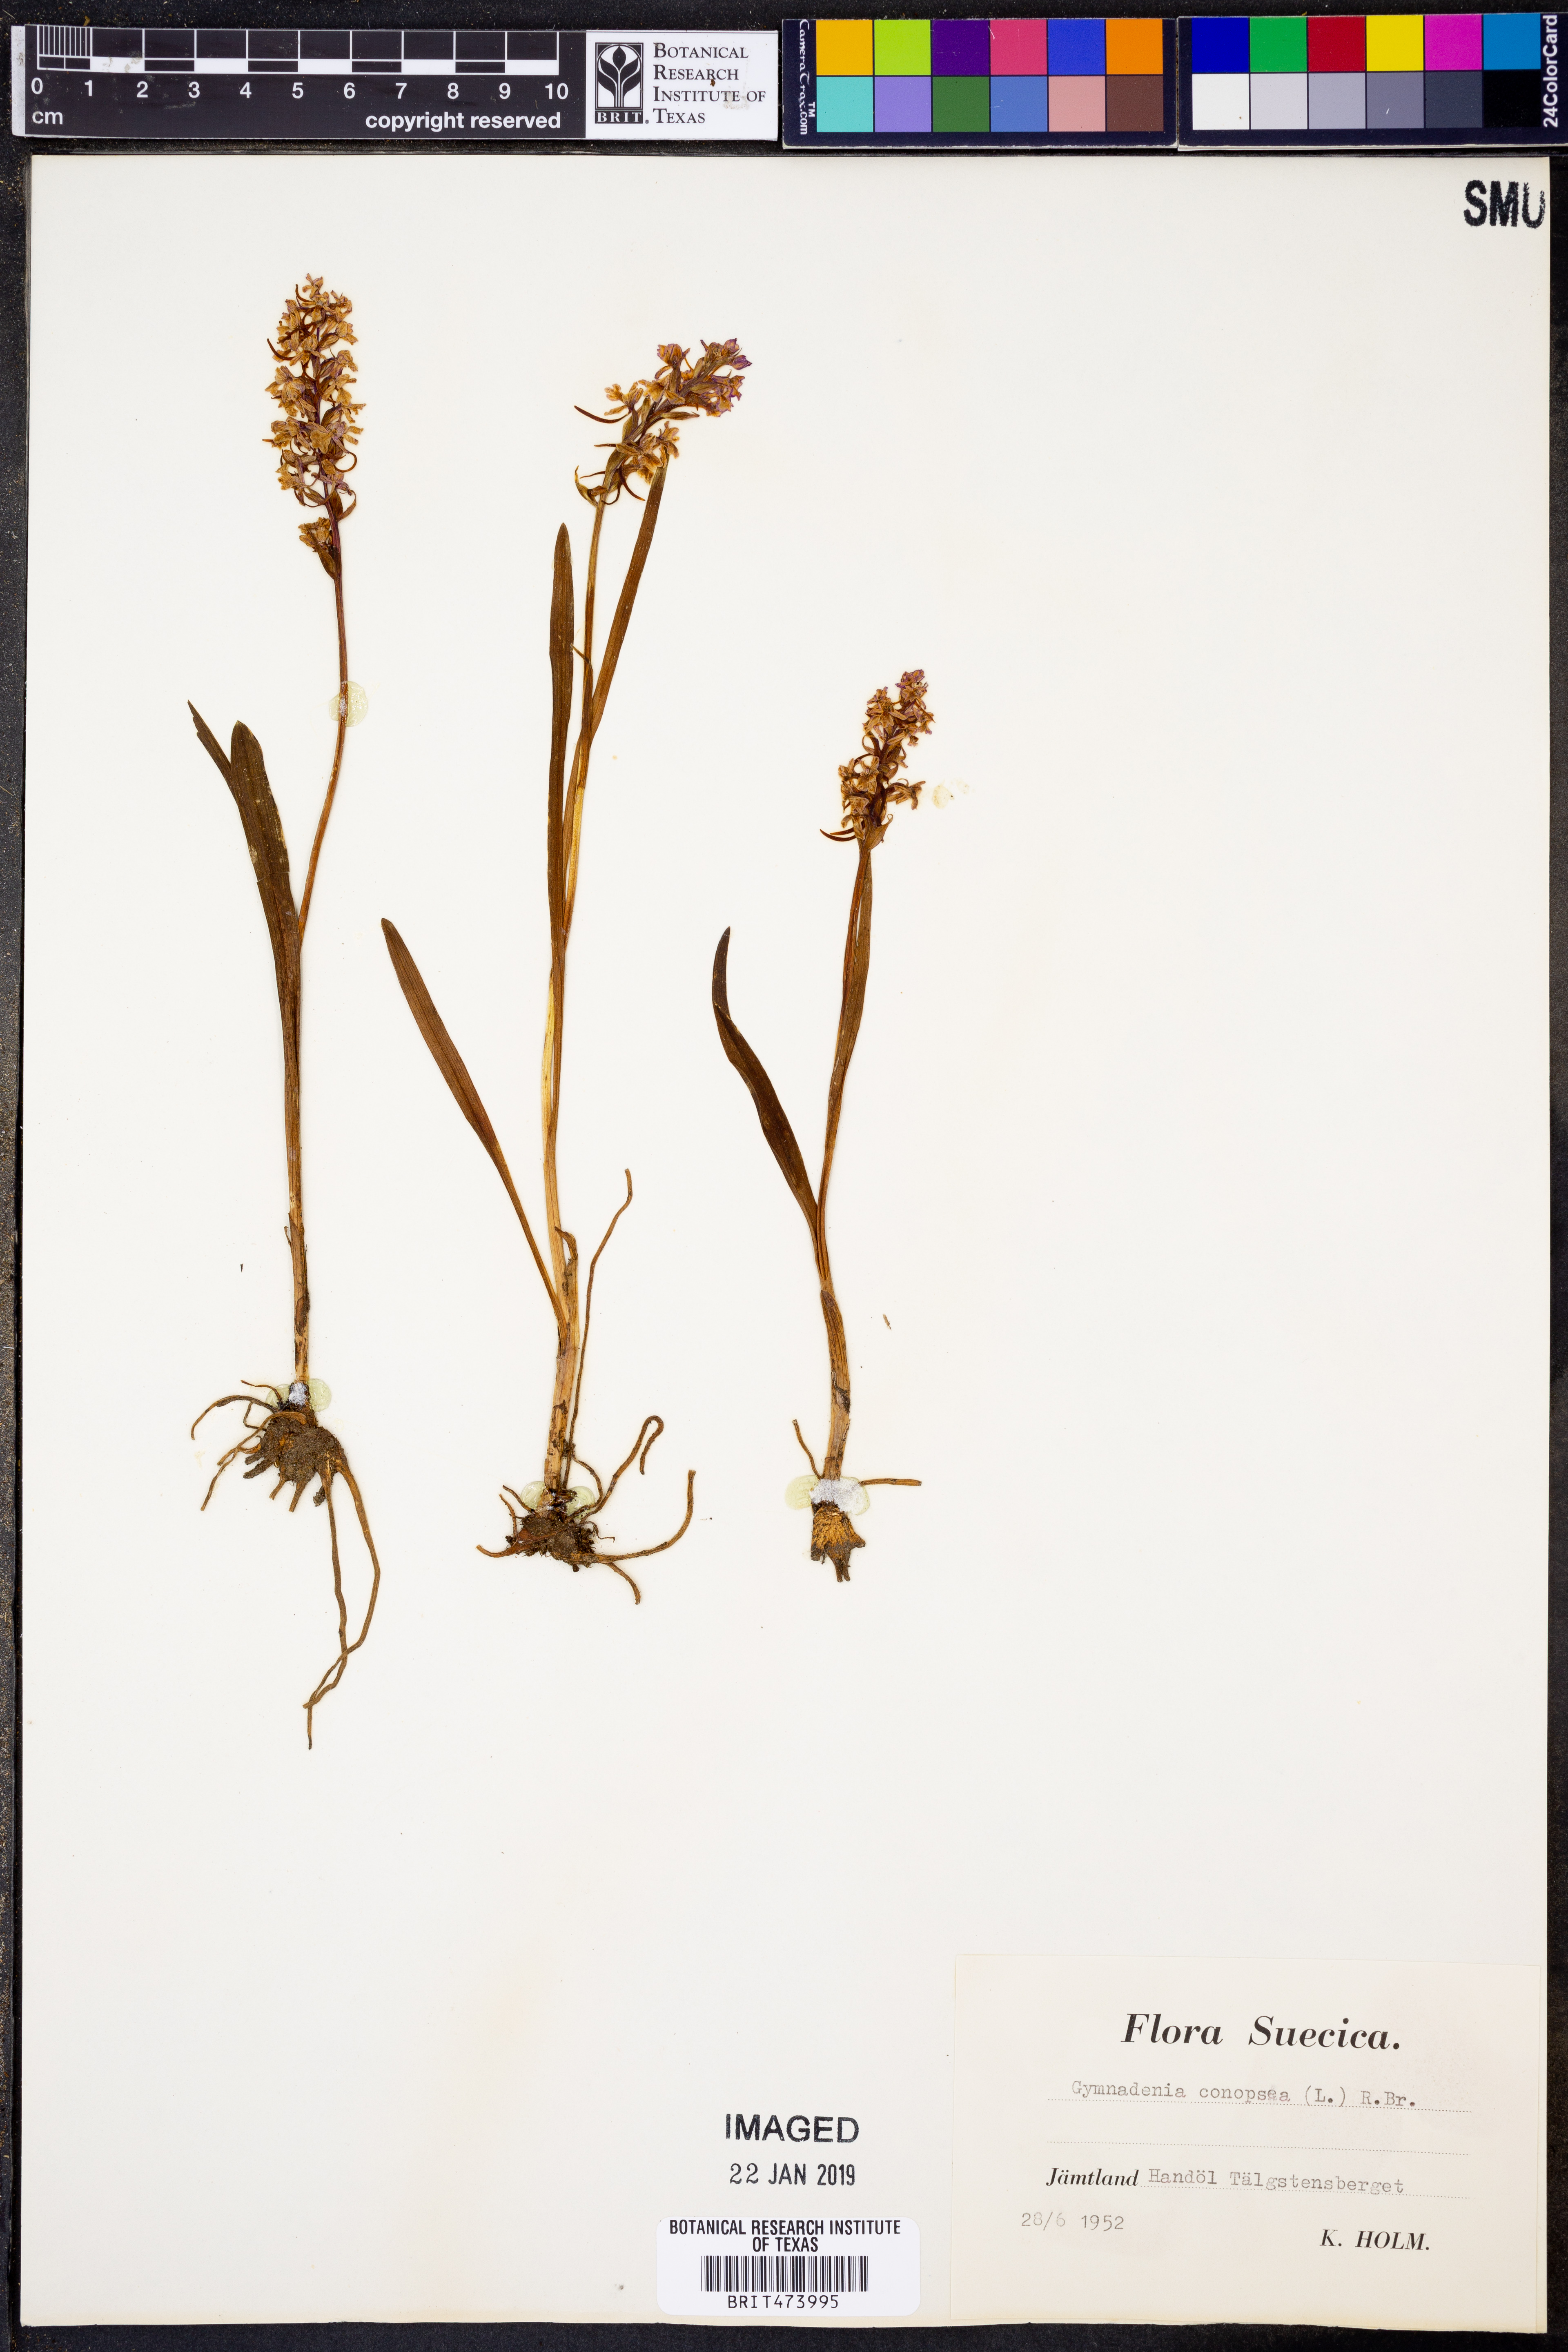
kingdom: Plantae
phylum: Tracheophyta
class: Liliopsida
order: Asparagales
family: Orchidaceae
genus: Gymnadenia
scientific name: Gymnadenia conopsea
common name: Fragrant orchid
